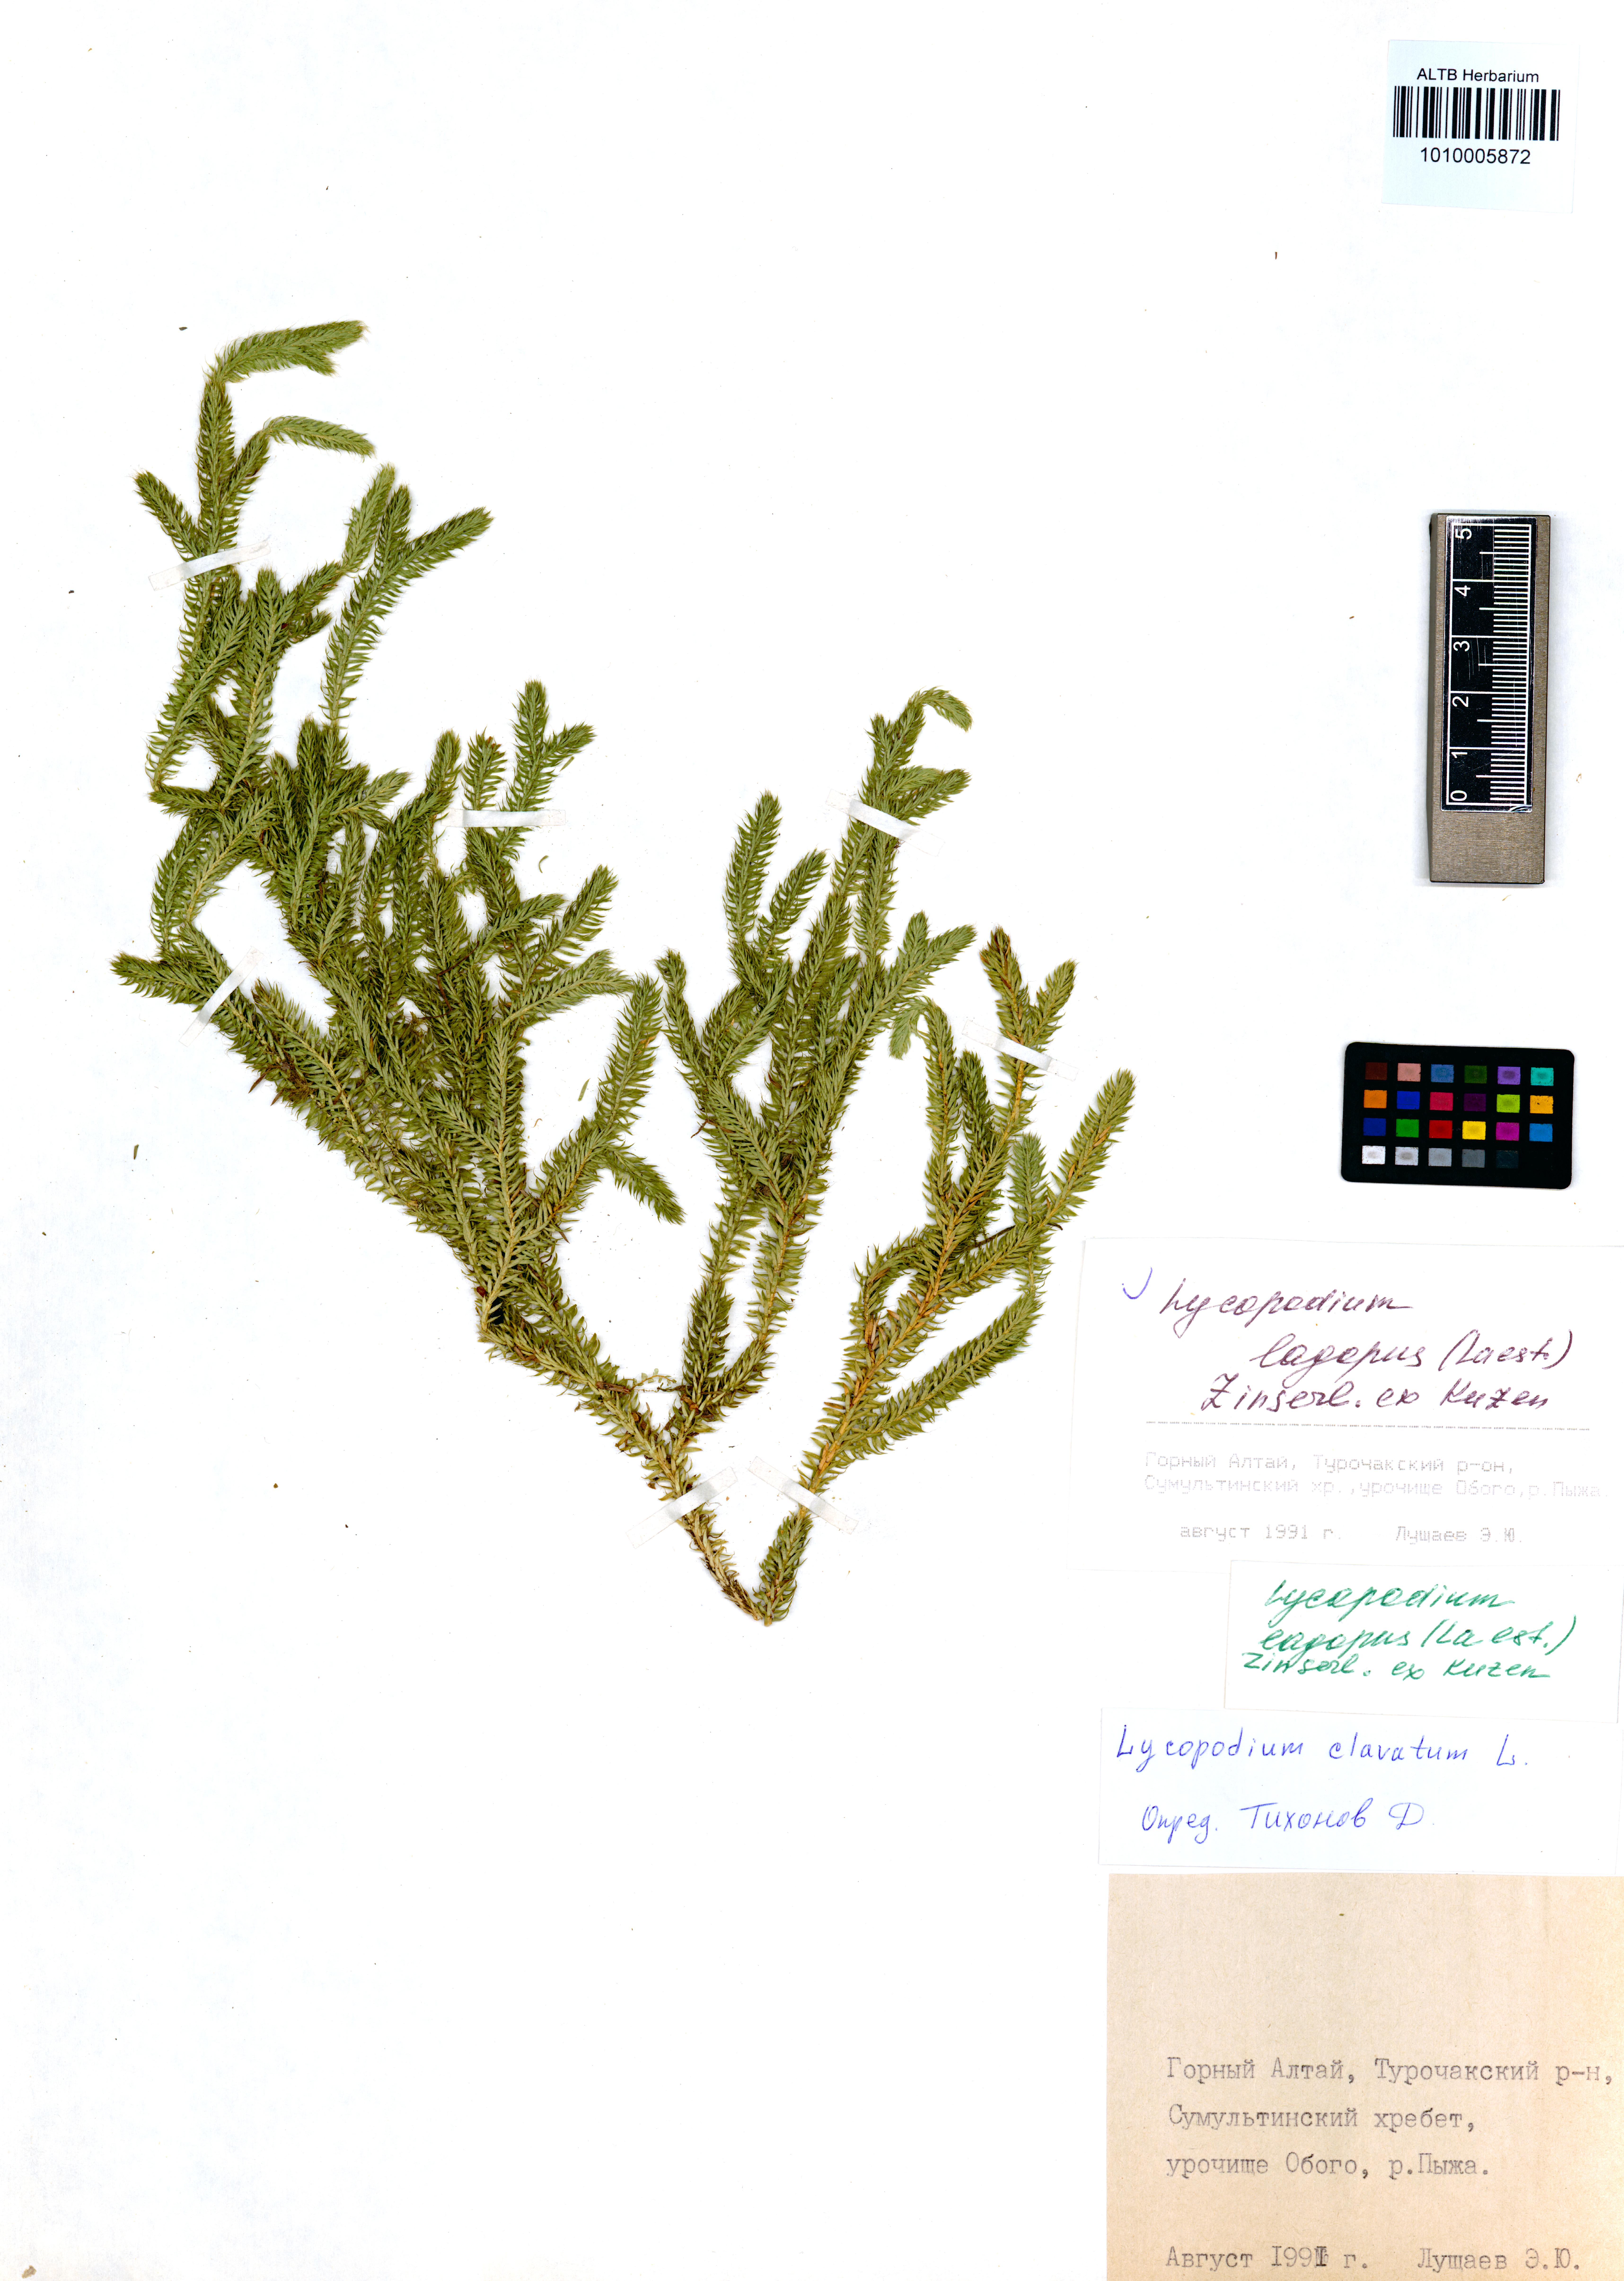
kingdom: Plantae
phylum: Tracheophyta
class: Lycopodiopsida
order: Lycopodiales
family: Lycopodiaceae
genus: Lycopodium
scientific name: Lycopodium lagopus
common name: One-cone clubmoss
